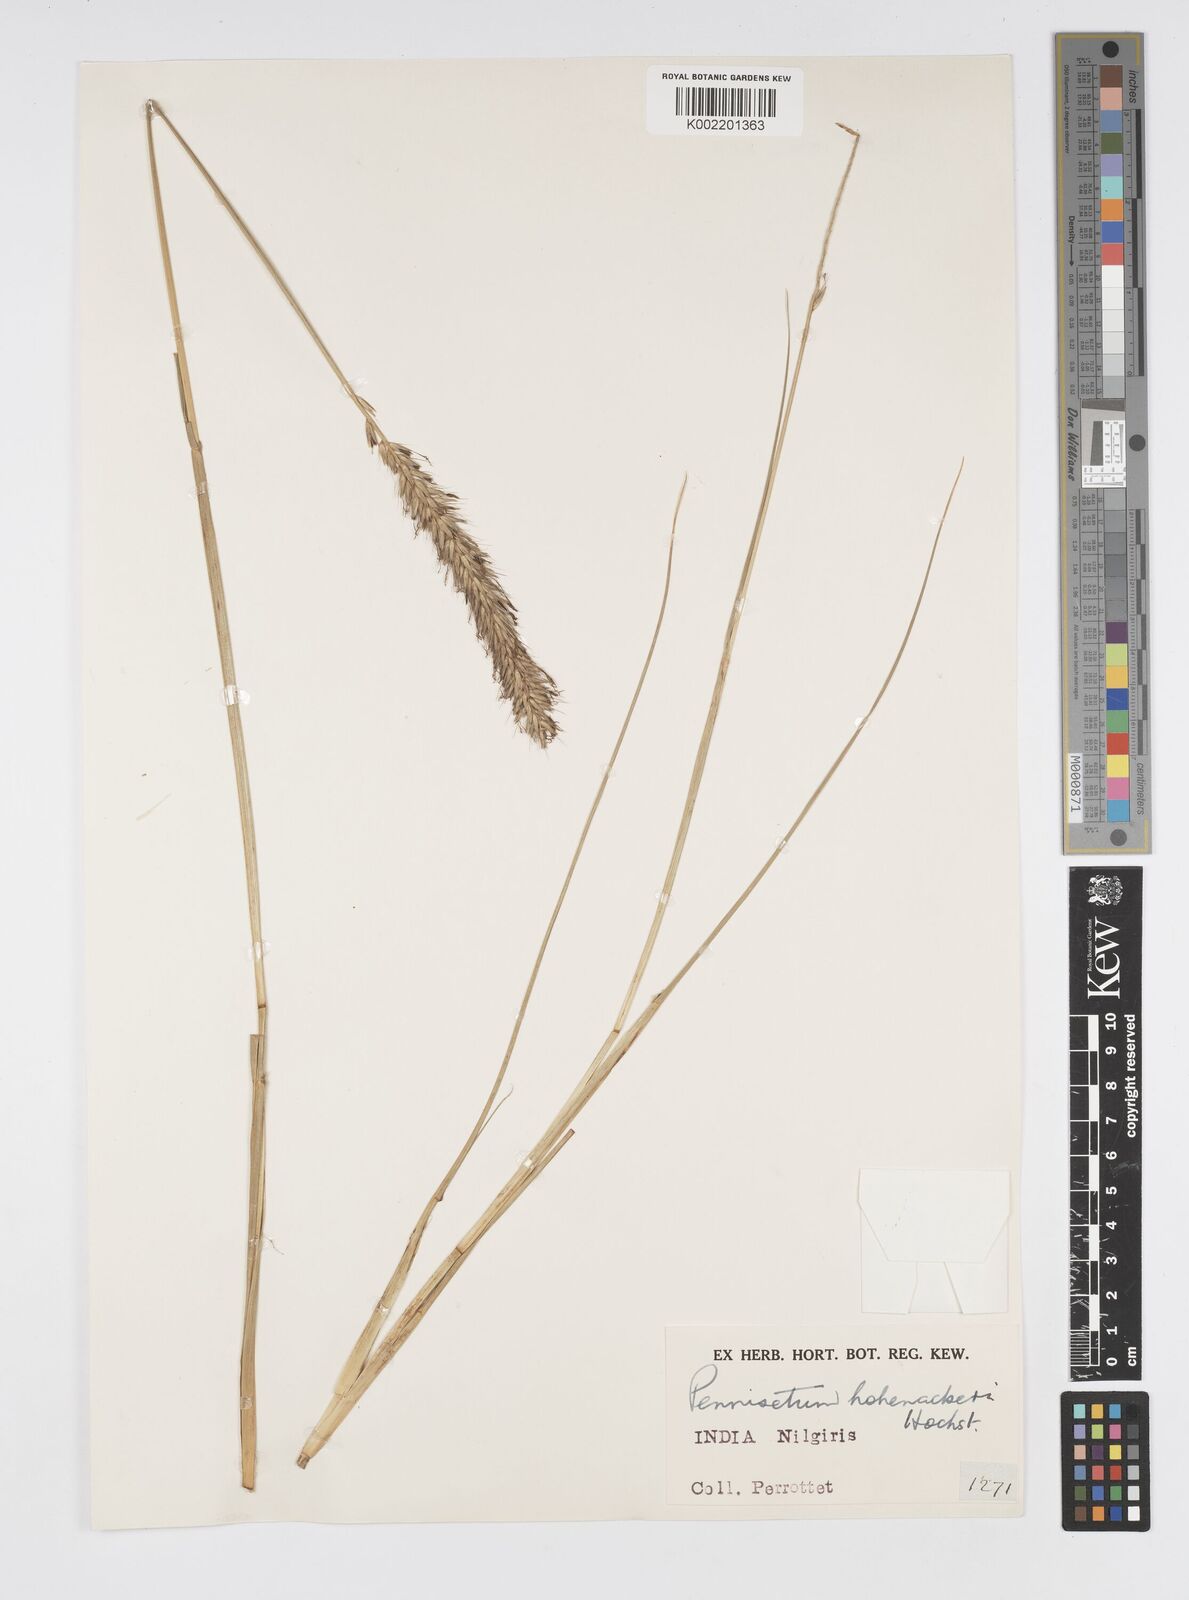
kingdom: Plantae
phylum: Tracheophyta
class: Liliopsida
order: Poales
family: Poaceae
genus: Cenchrus
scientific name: Cenchrus hohenackeri
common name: Moya grass
